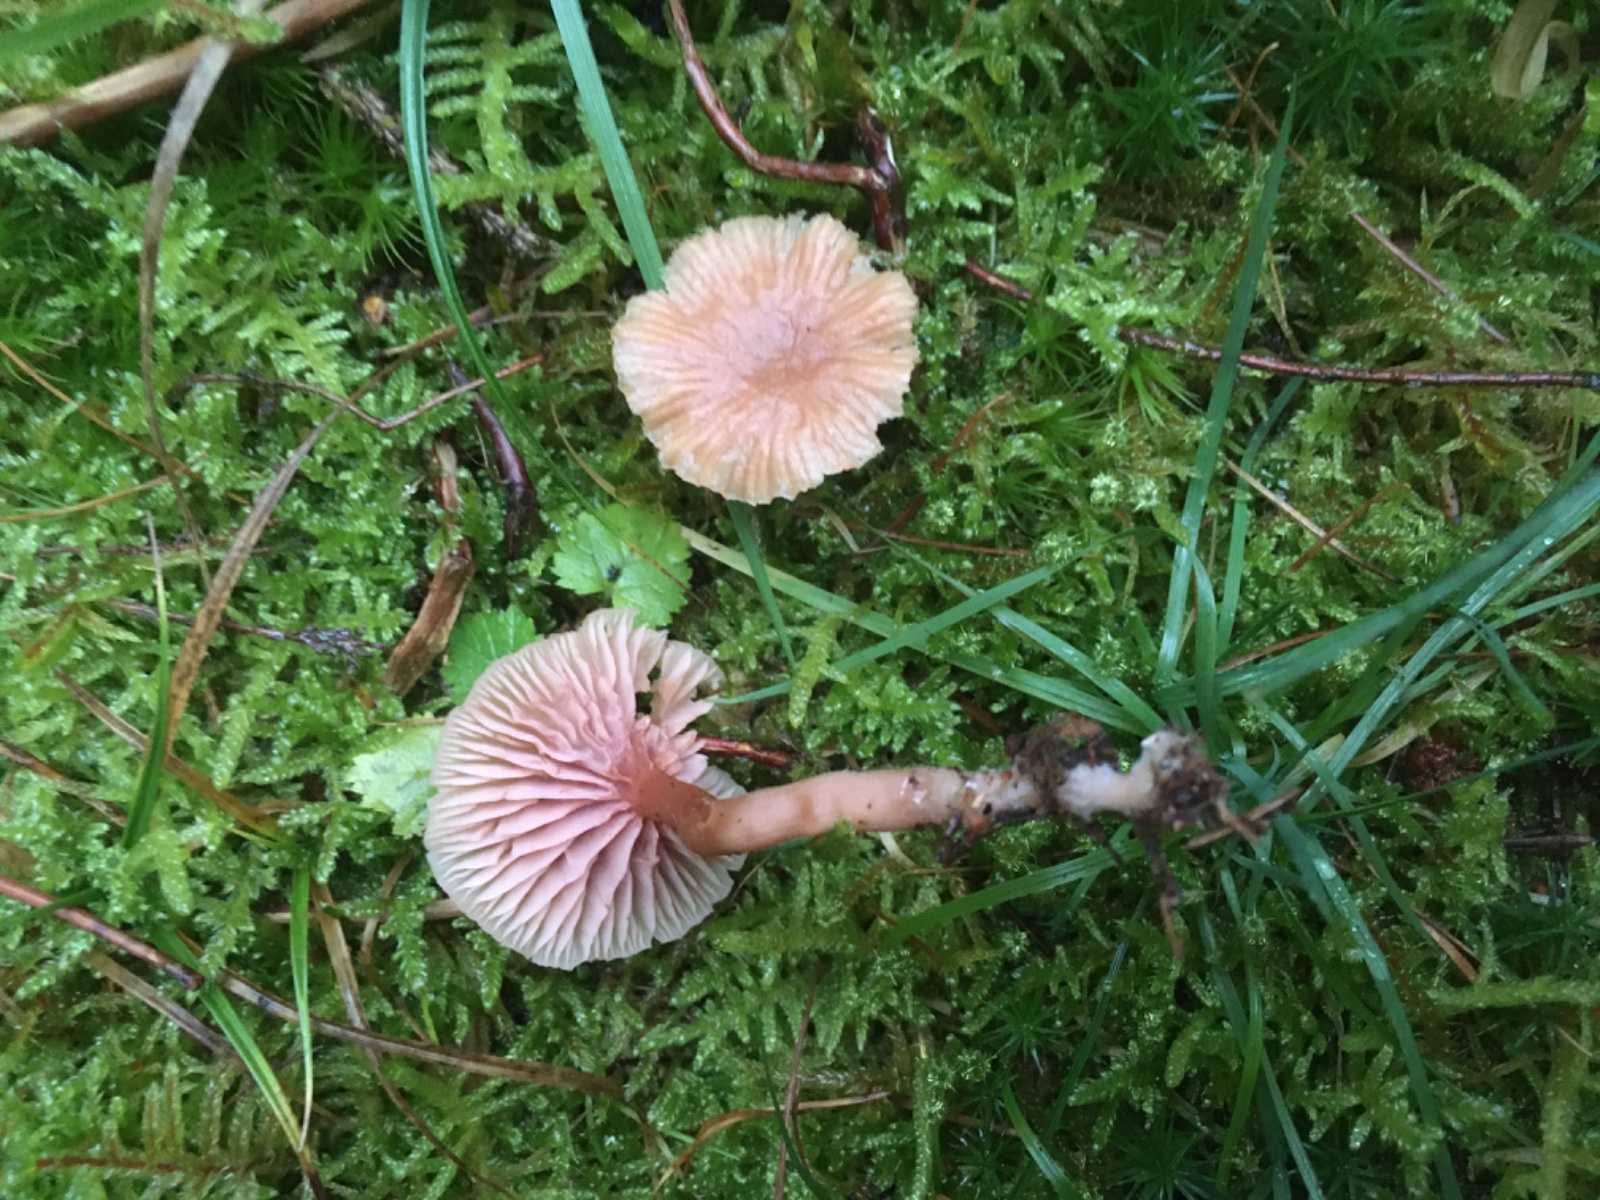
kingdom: Fungi
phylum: Basidiomycota
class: Agaricomycetes
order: Agaricales
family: Hydnangiaceae
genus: Laccaria
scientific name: Laccaria laccata
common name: rød ametysthat
